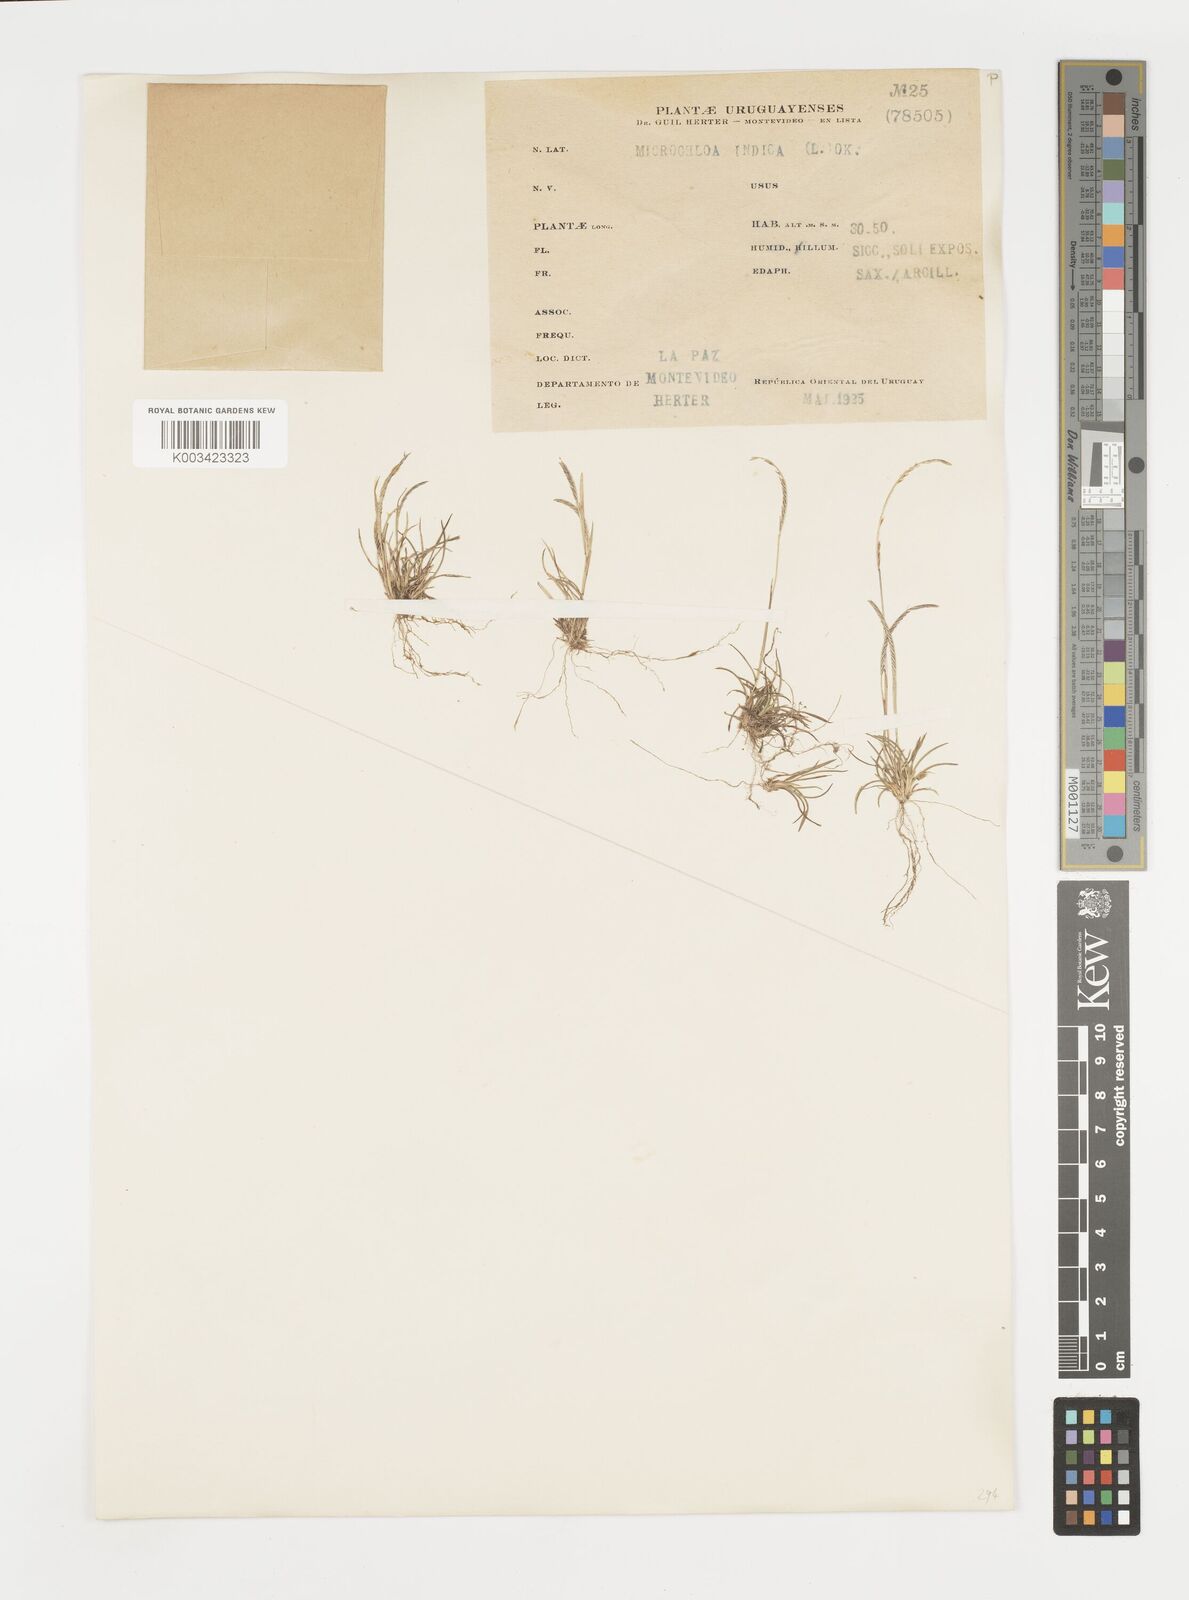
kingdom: Plantae
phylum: Tracheophyta
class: Liliopsida
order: Poales
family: Poaceae
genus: Microchloa
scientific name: Microchloa kunthii
